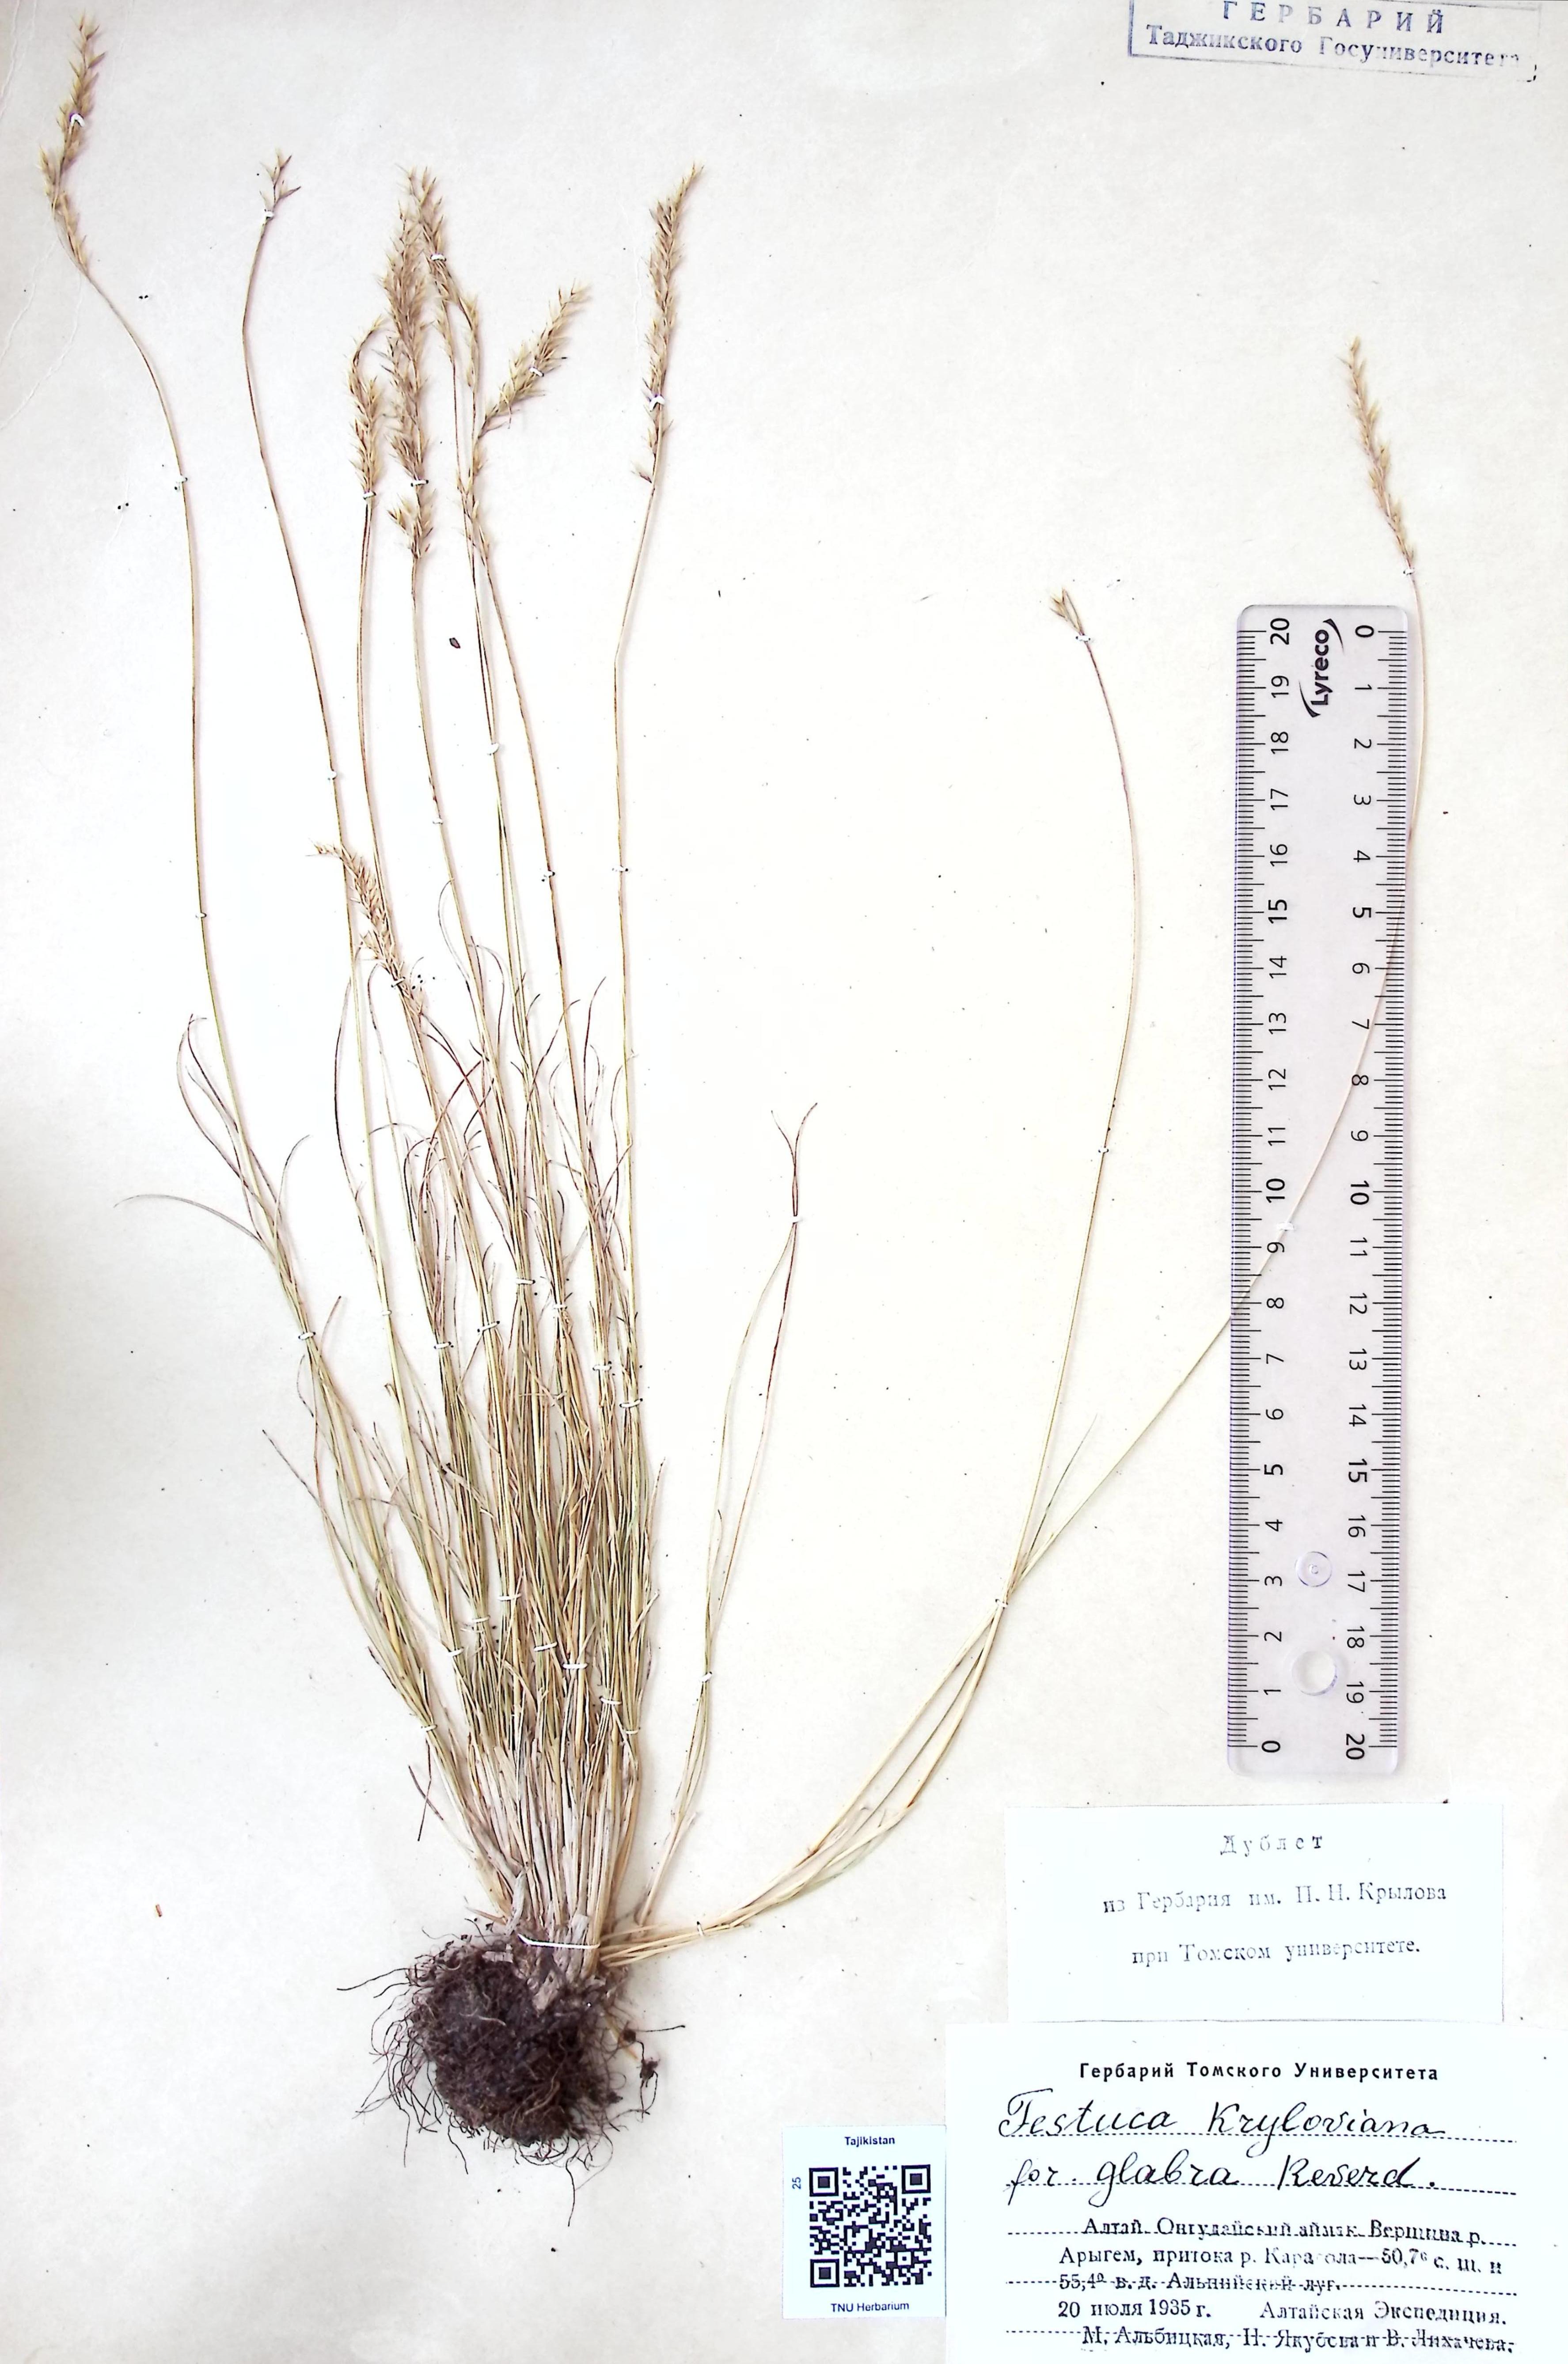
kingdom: Plantae
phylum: Tracheophyta
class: Liliopsida
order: Poales
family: Poaceae
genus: Festuca
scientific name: Festuca
